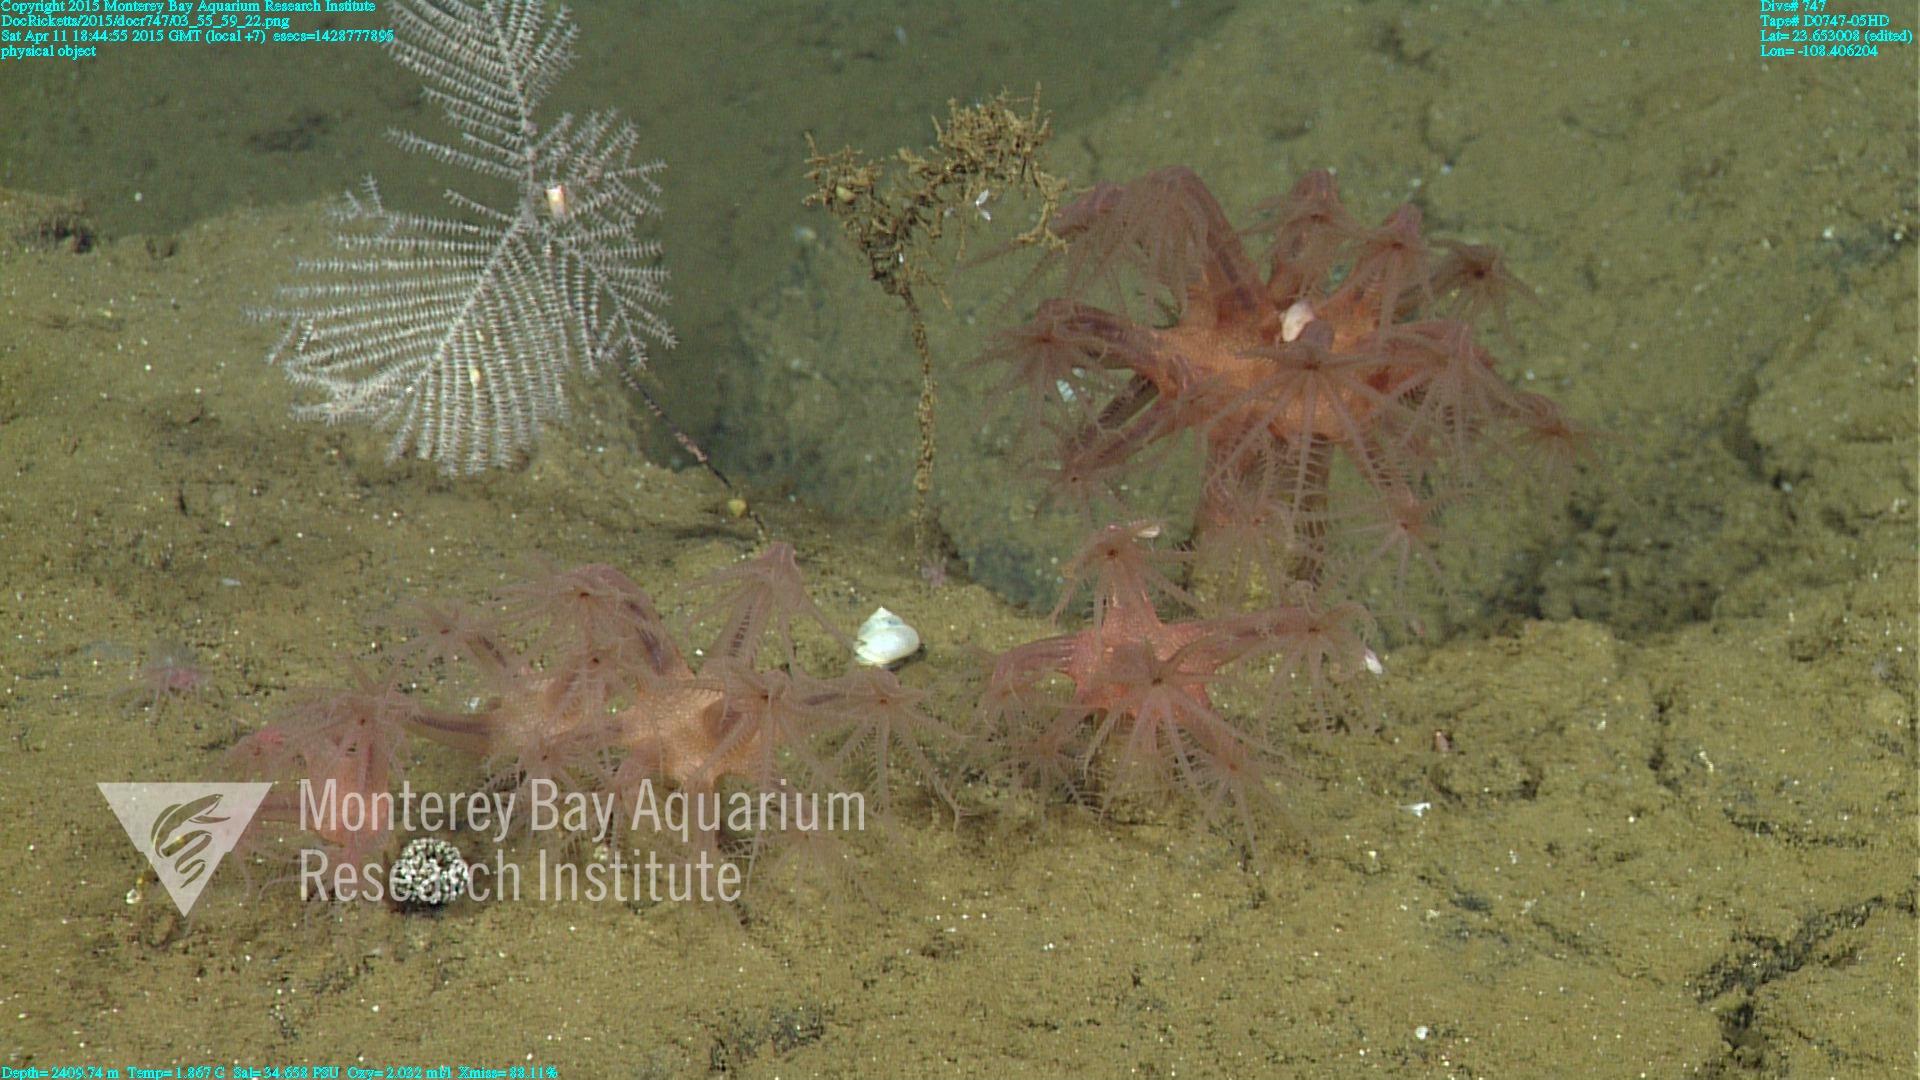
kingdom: Animalia
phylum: Cnidaria
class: Anthozoa
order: Scleralcyonacea
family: Coralliidae
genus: Heteropolypus
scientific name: Heteropolypus ritteri
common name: Ritter's soft coral
